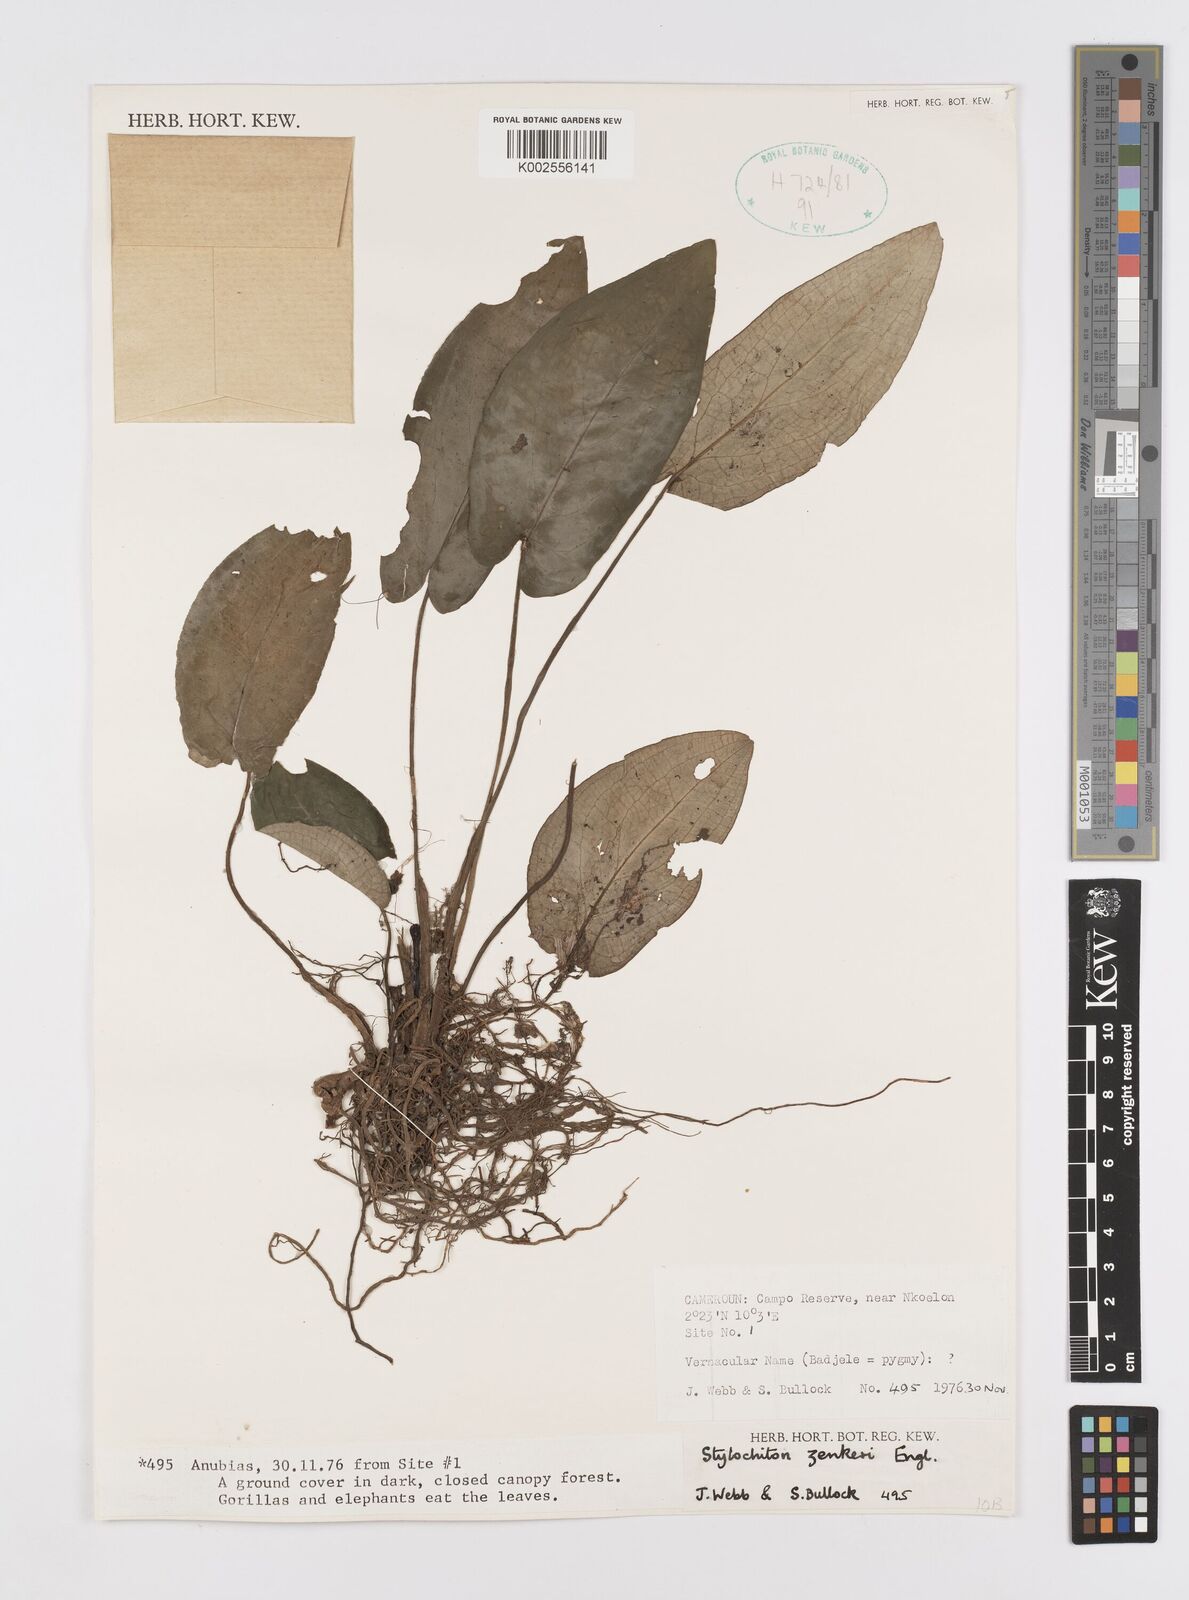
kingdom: Plantae
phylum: Tracheophyta
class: Liliopsida
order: Alismatales
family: Araceae
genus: Stylochaeton
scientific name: Stylochaeton zenkeri
